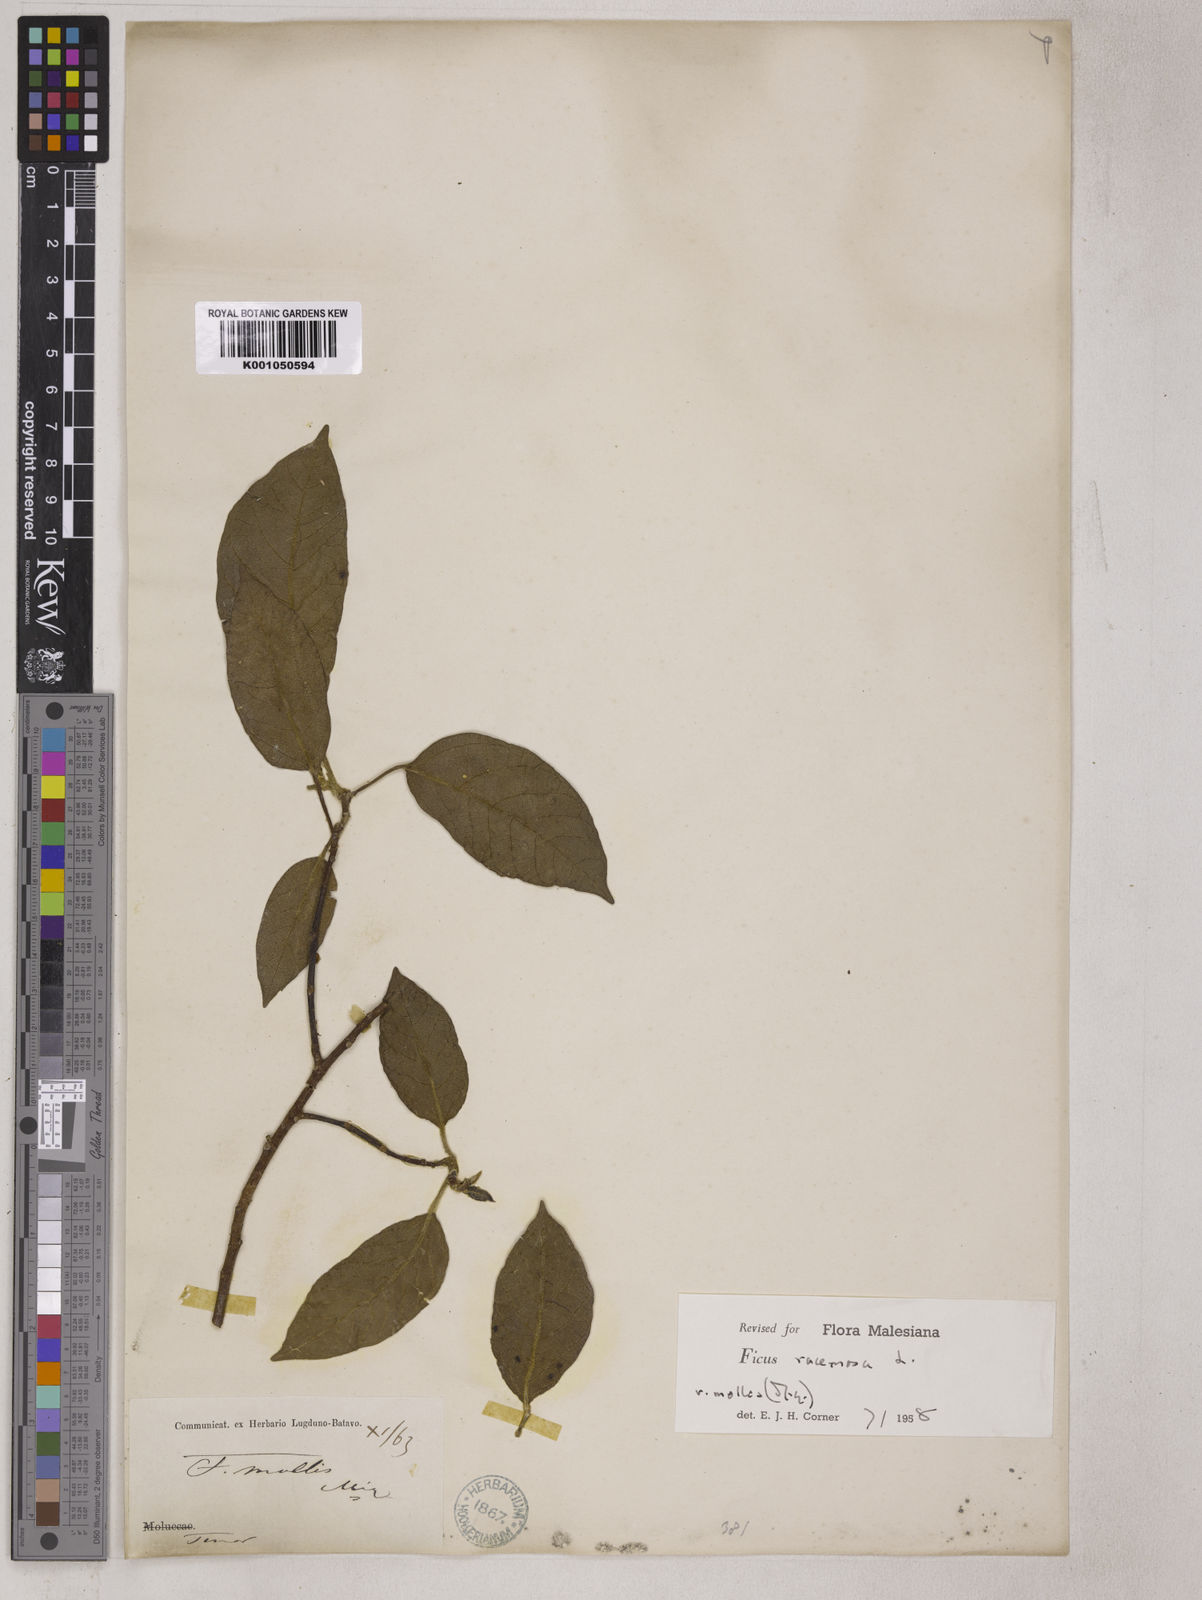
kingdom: Plantae
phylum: Tracheophyta
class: Magnoliopsida
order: Rosales
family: Moraceae
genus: Ficus
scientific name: Ficus racemosa
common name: Cluster fig
